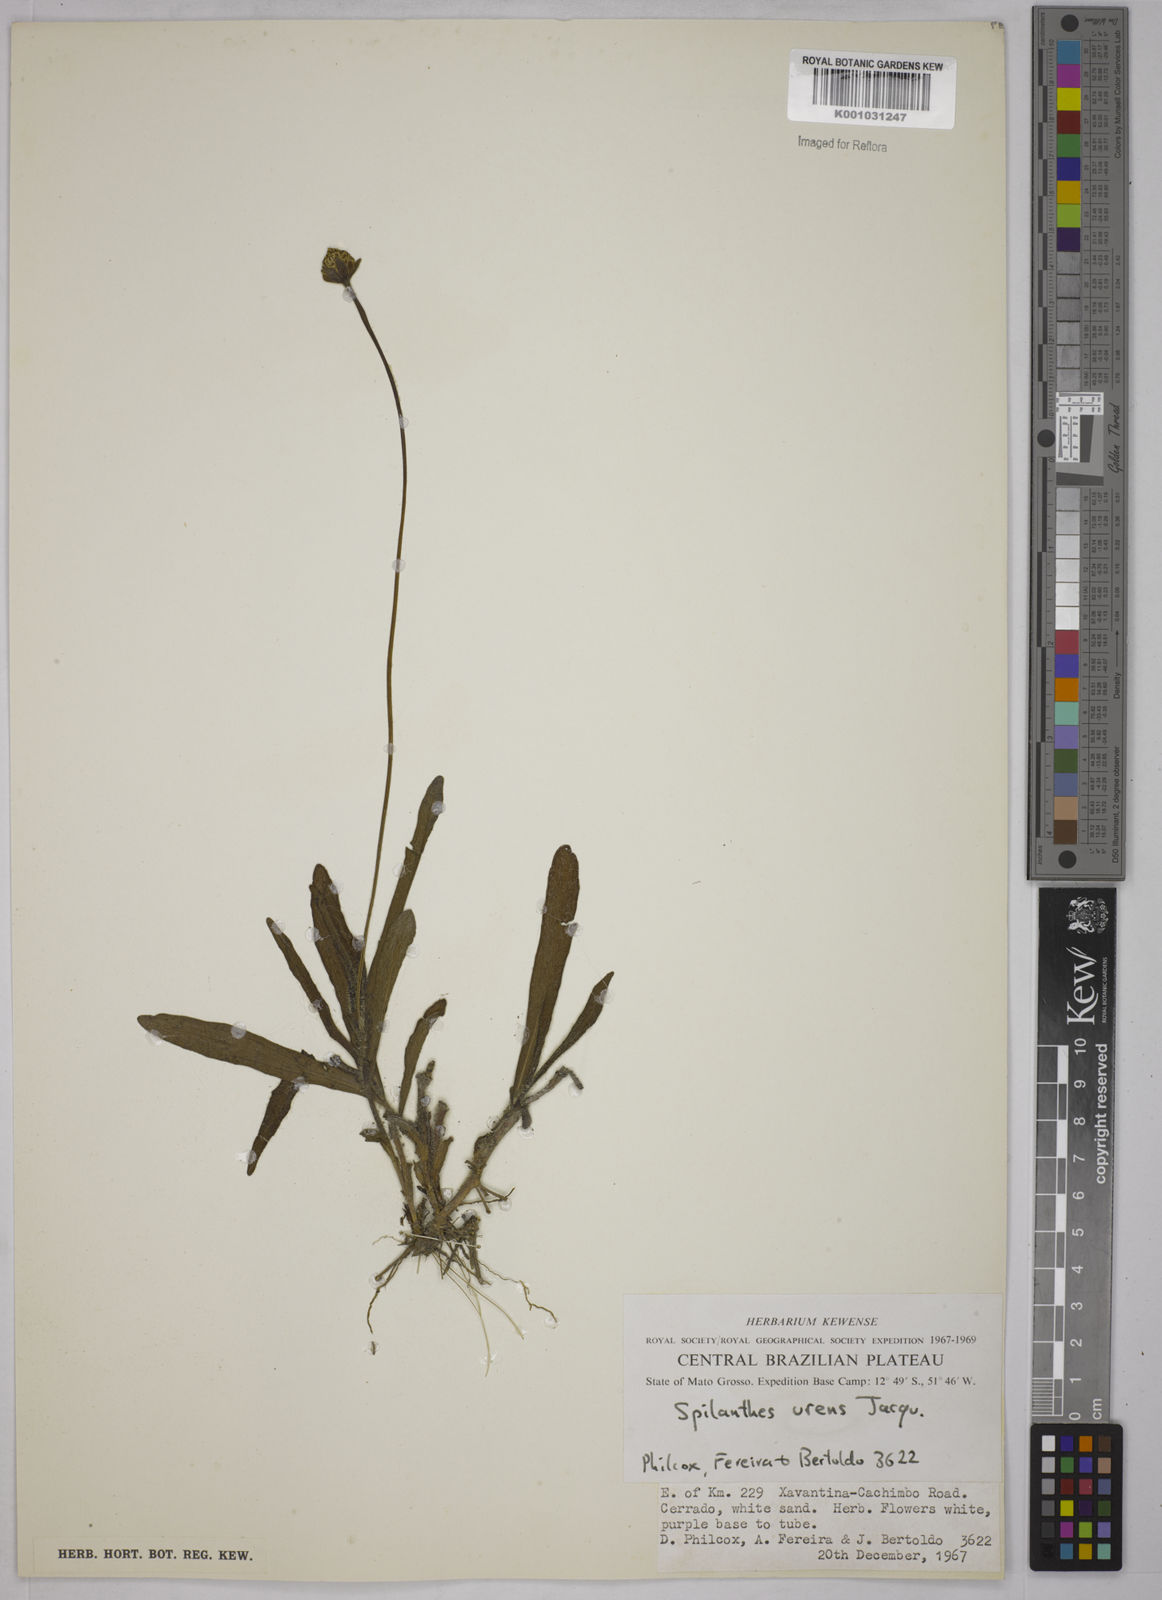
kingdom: Plantae
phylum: Tracheophyta
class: Magnoliopsida
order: Asterales
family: Asteraceae
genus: Spilanthes
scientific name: Spilanthes urens
